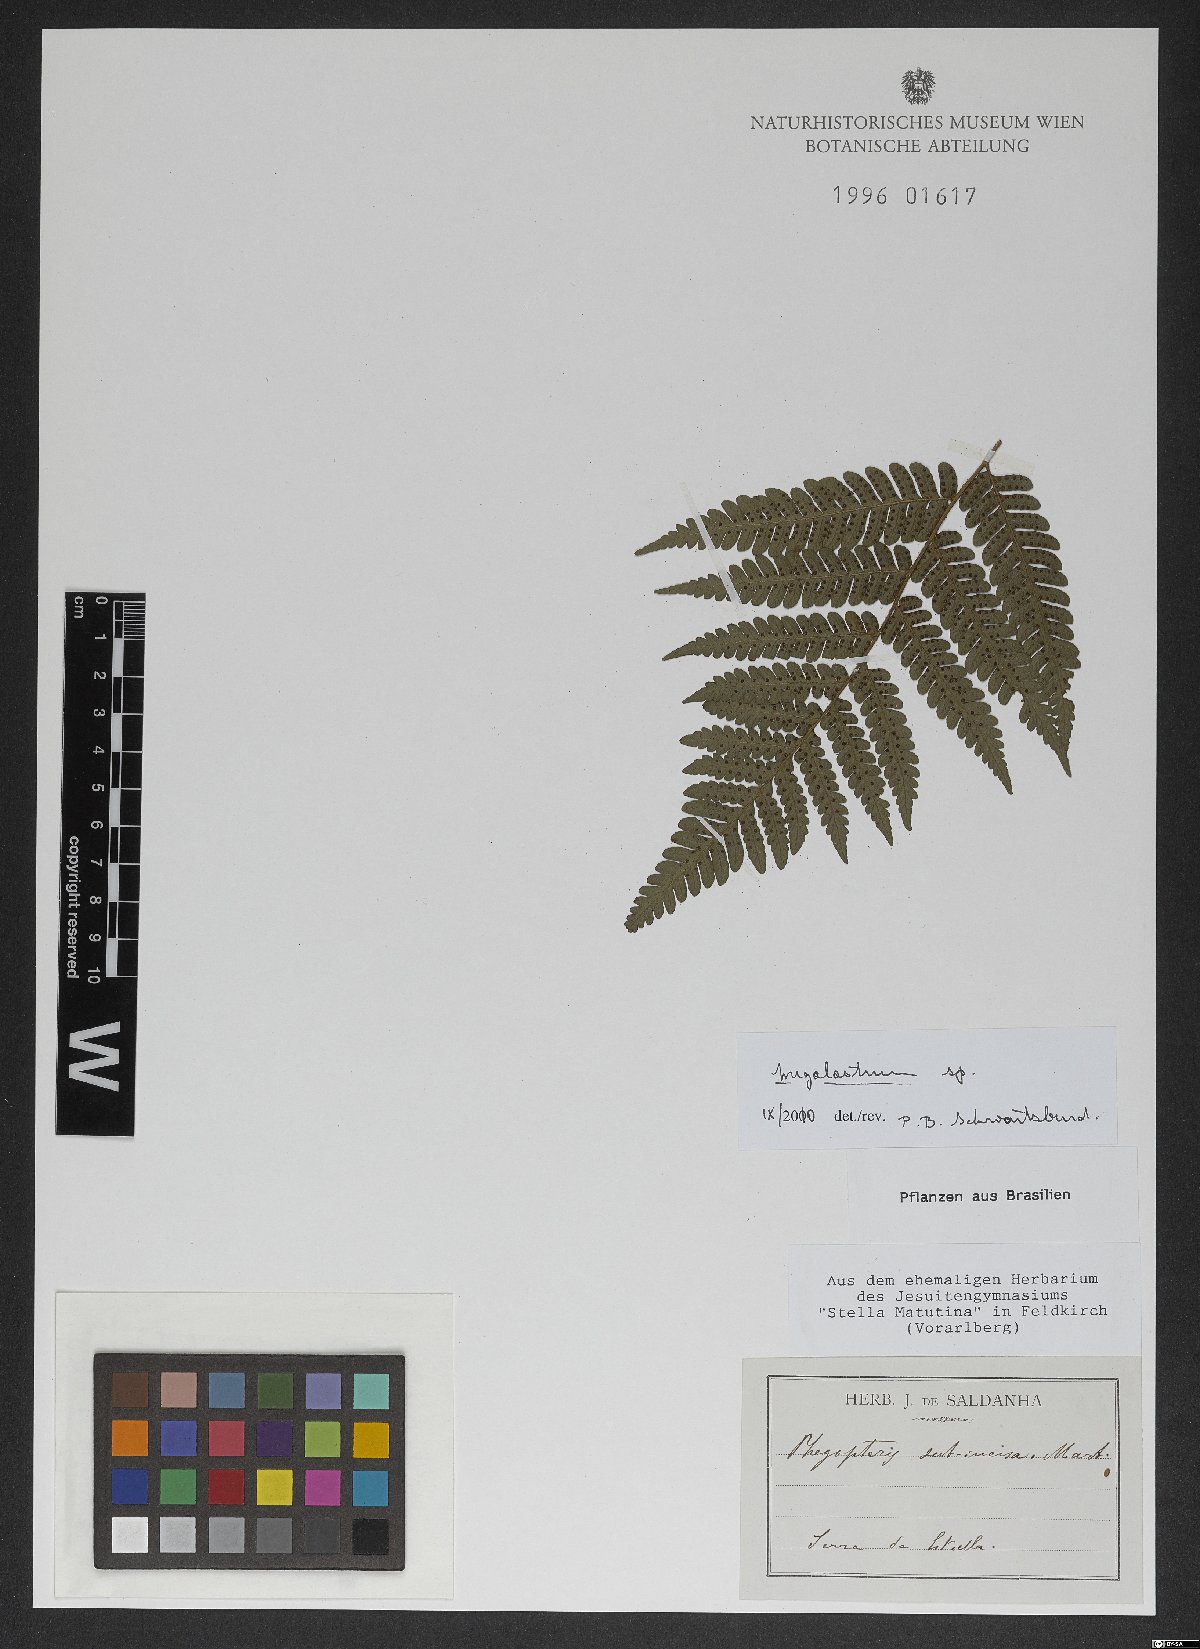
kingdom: Plantae
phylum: Tracheophyta
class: Polypodiopsida
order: Polypodiales
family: Dryopteridaceae
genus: Megalastrum
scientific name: Megalastrum inaequale
